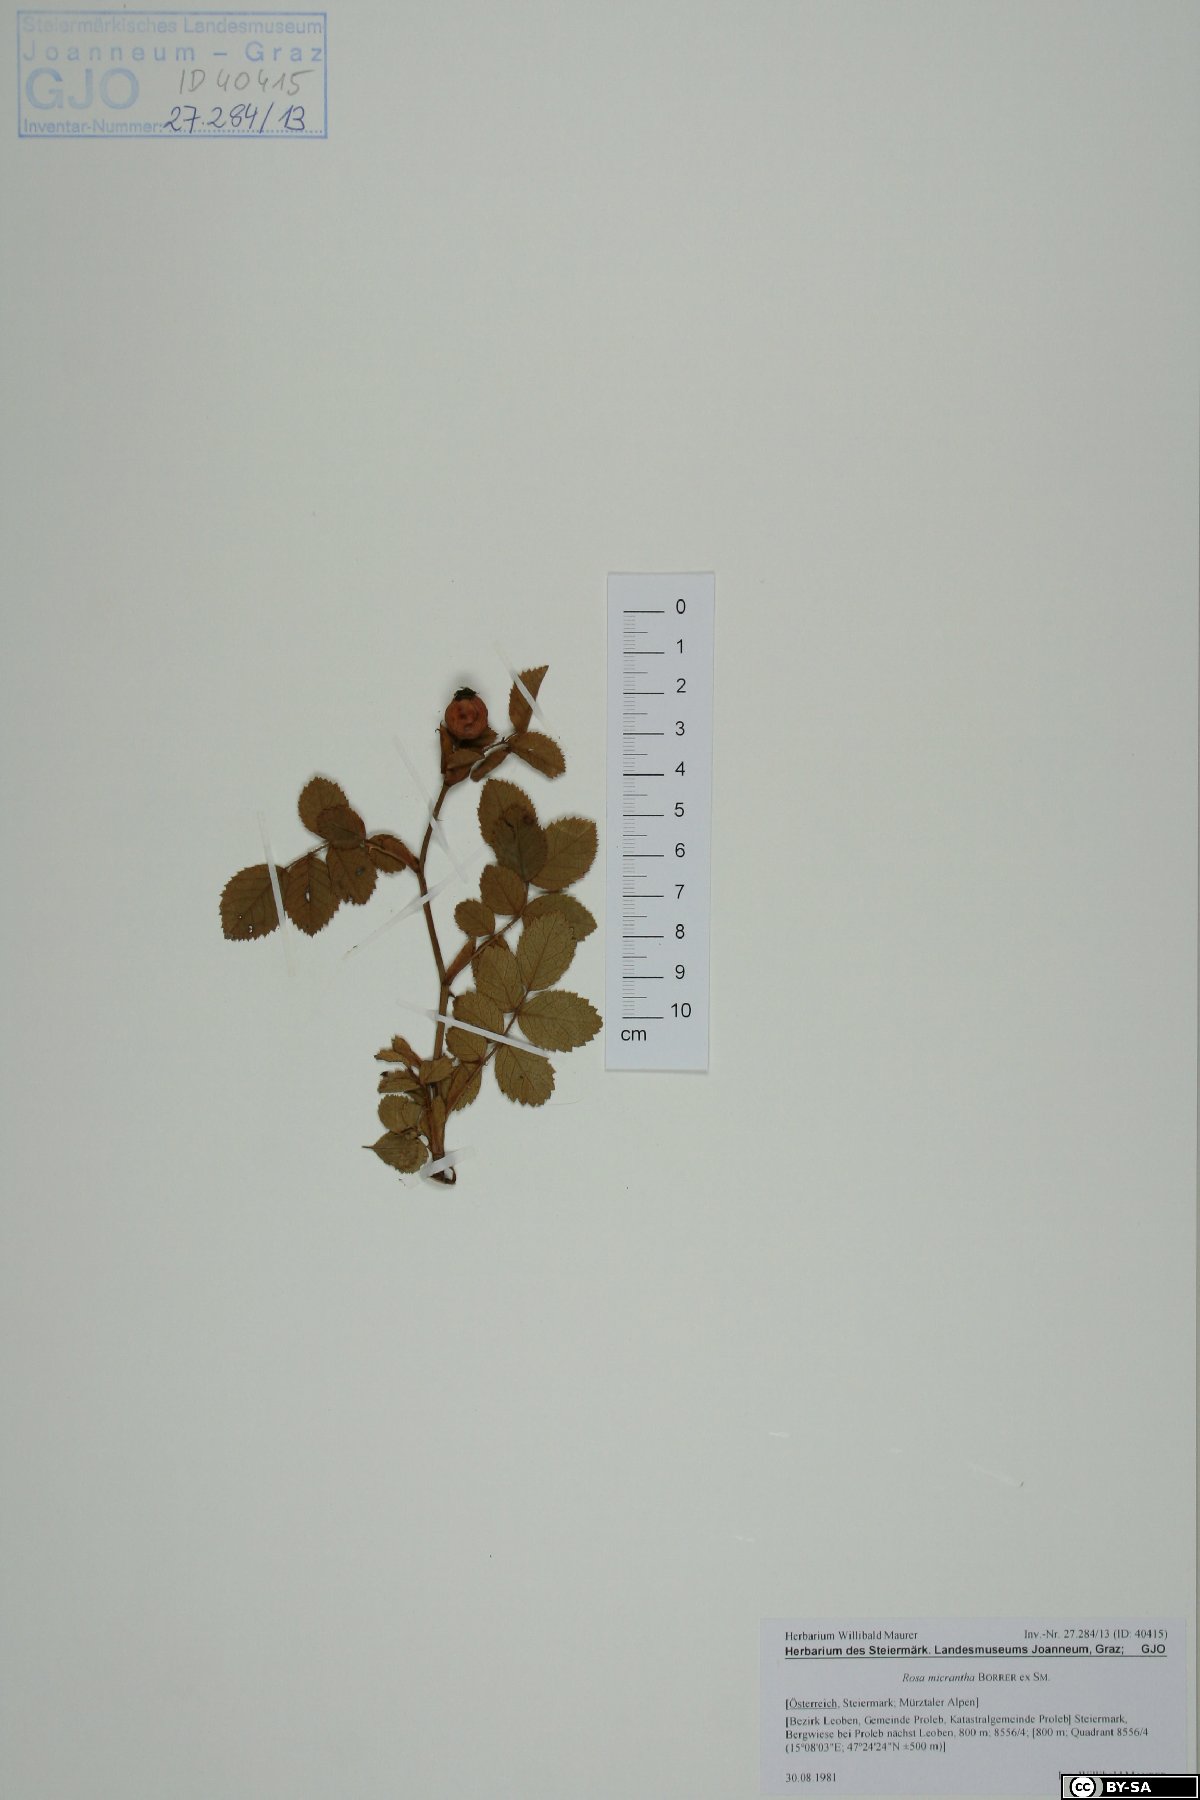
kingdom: Plantae
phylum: Tracheophyta
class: Magnoliopsida
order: Rosales
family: Rosaceae
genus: Rosa
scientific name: Rosa micrantha
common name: Small-flowered sweet-briar
